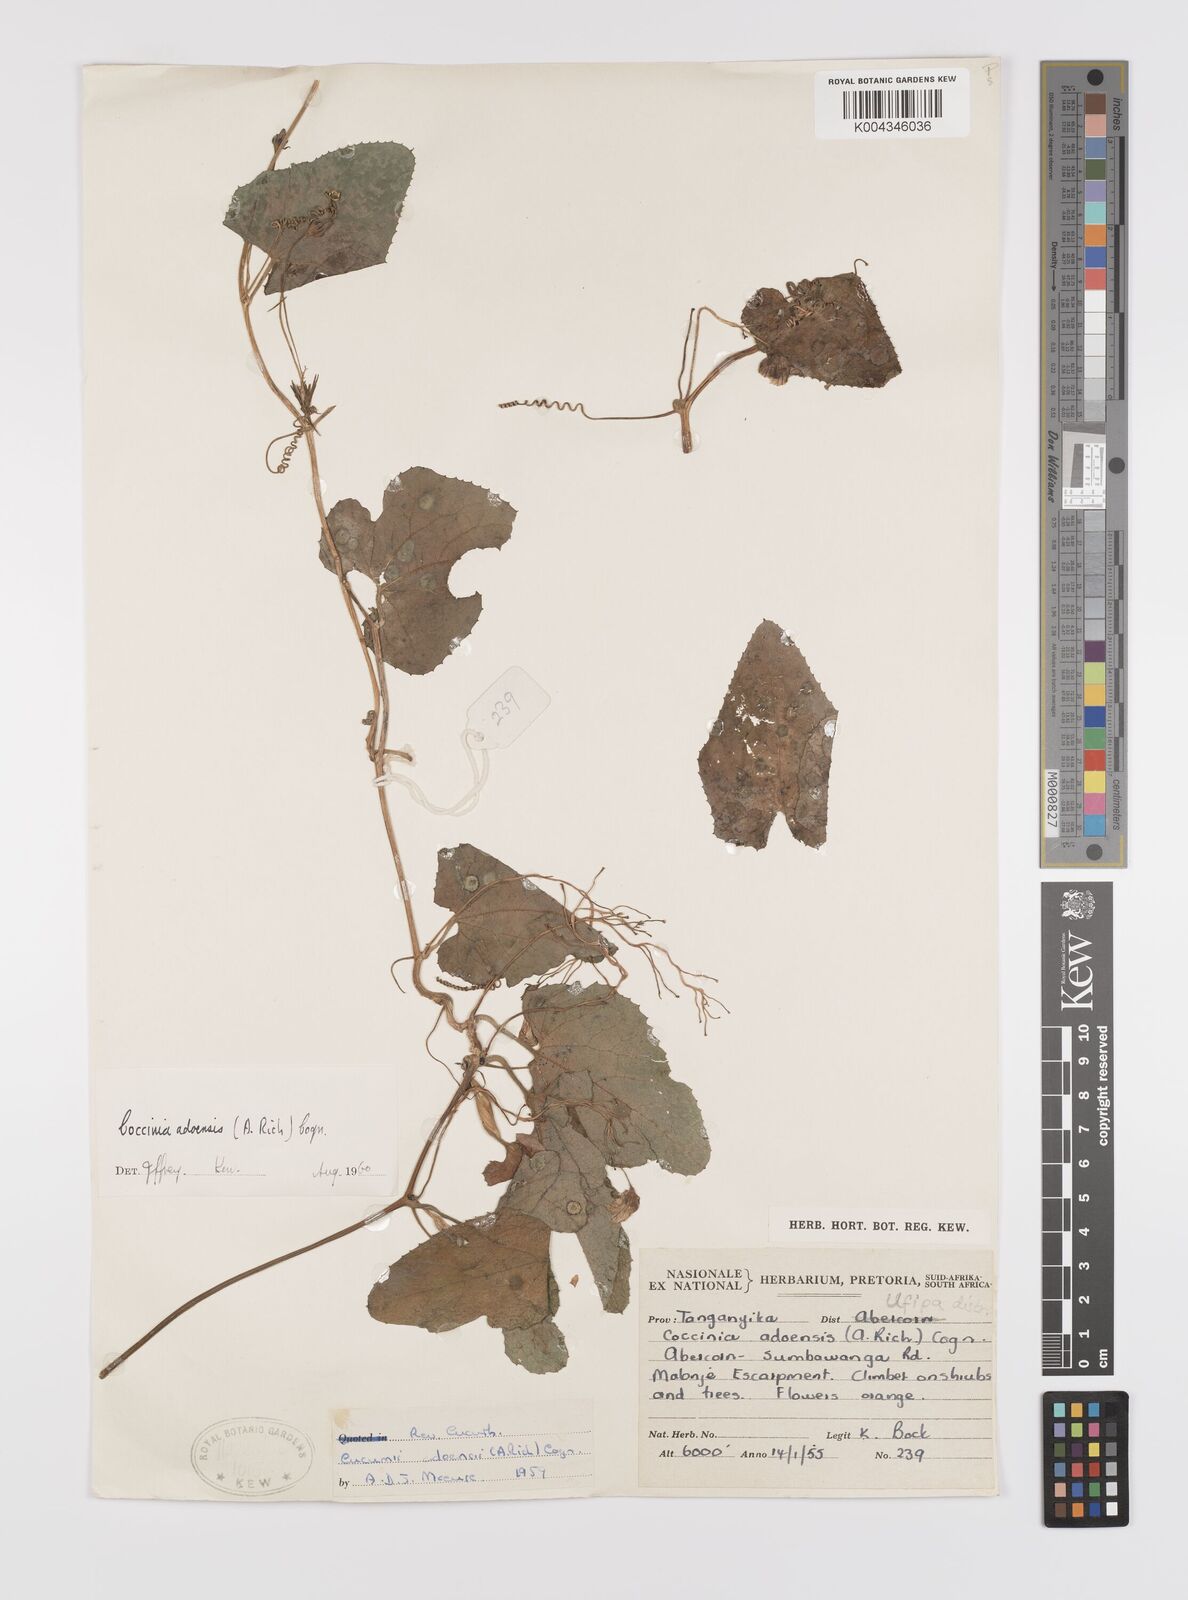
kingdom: Plantae
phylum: Tracheophyta
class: Magnoliopsida
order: Cucurbitales
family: Cucurbitaceae
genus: Coccinia
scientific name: Coccinia adoensis
